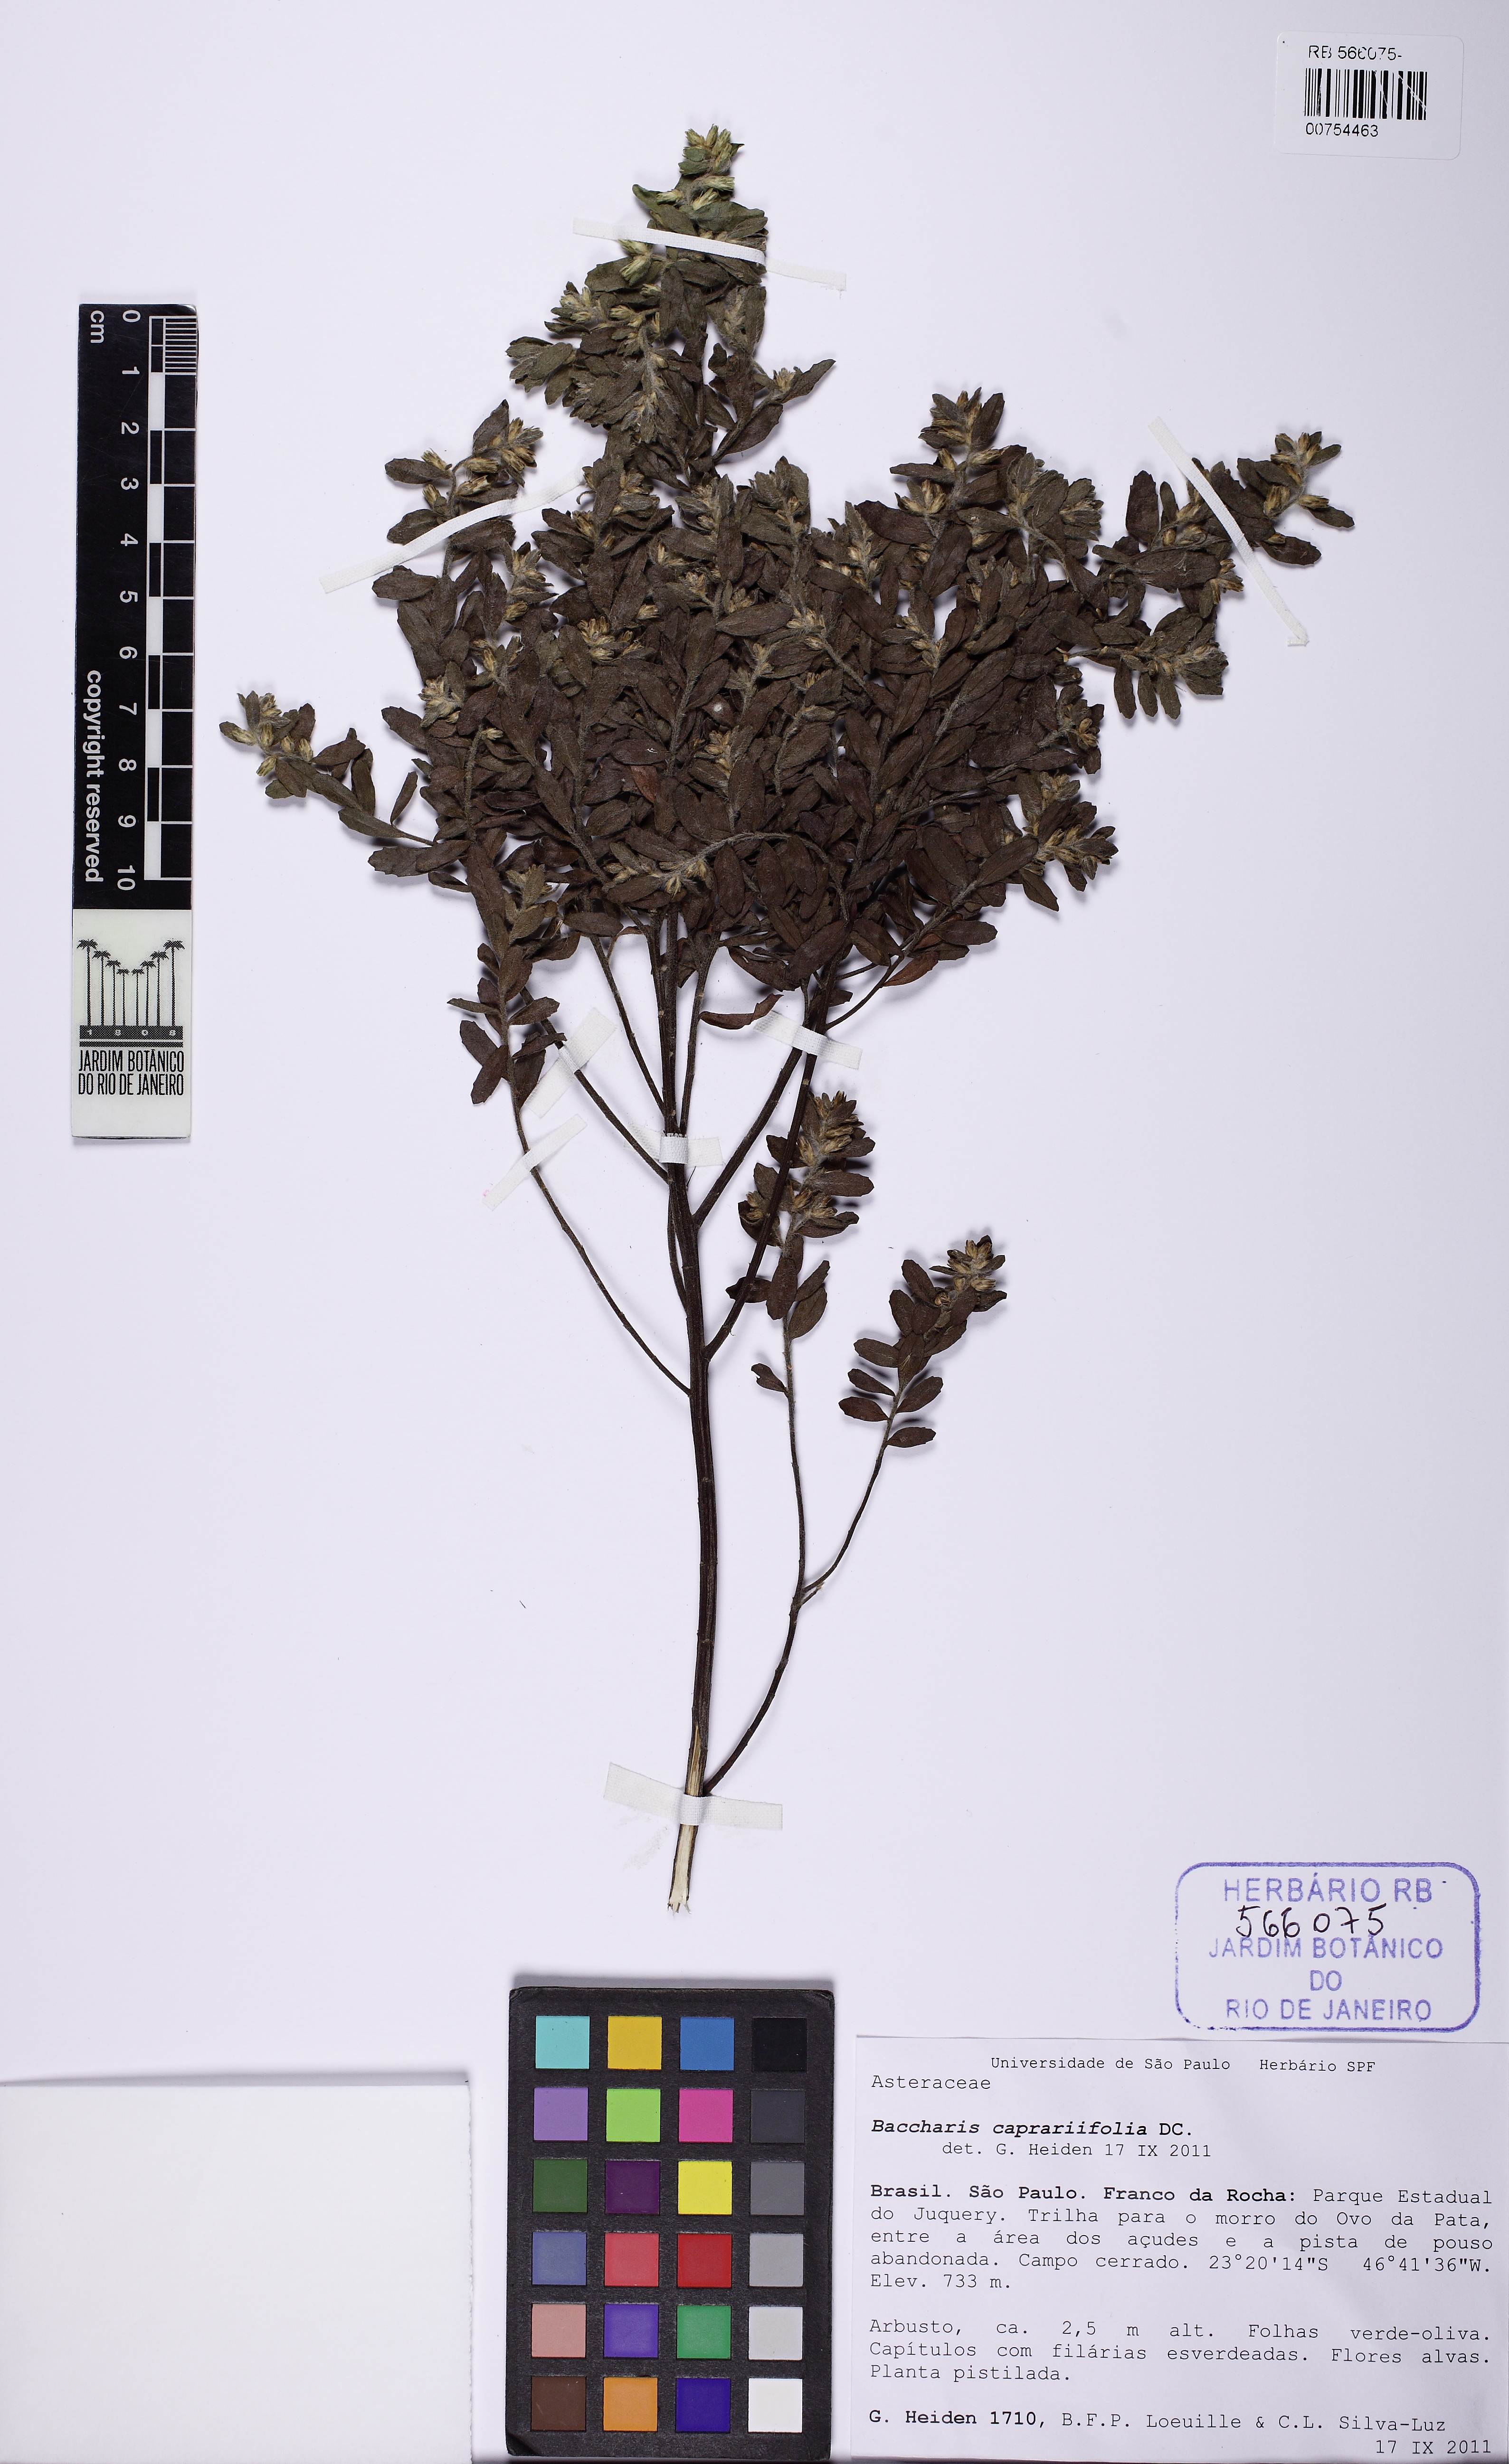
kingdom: Plantae
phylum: Tracheophyta
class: Magnoliopsida
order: Asterales
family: Asteraceae
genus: Baccharis
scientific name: Baccharis caprariifolia
